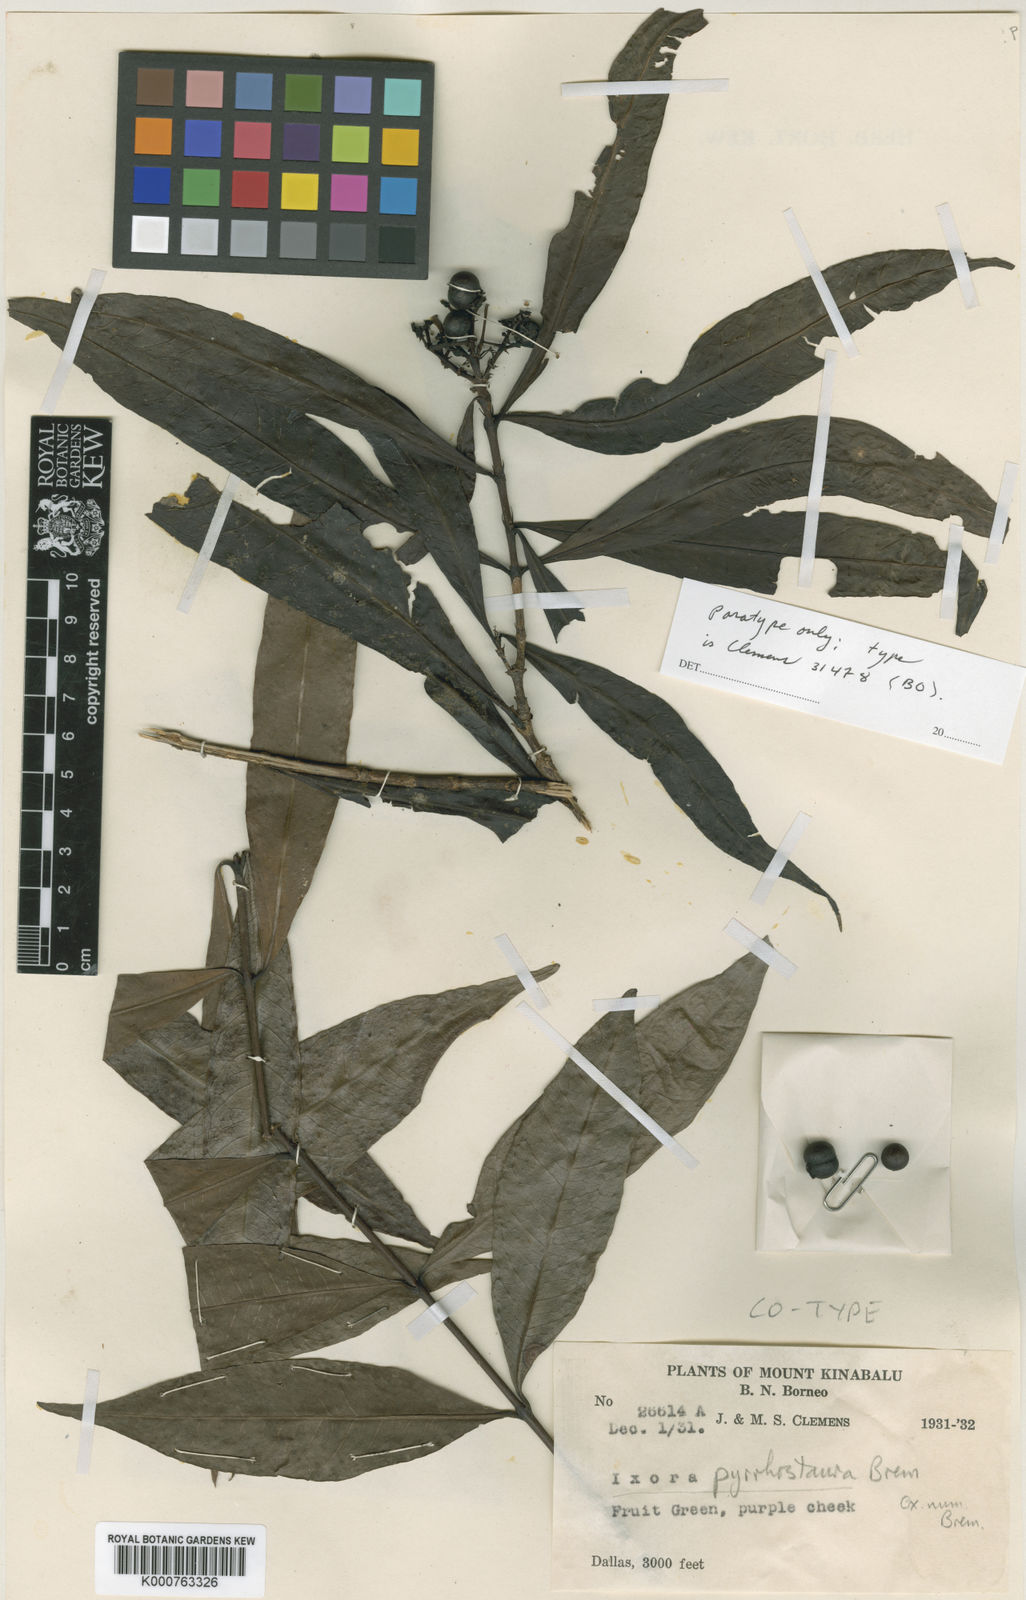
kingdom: Plantae
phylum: Tracheophyta
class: Magnoliopsida
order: Gentianales
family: Rubiaceae
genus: Ixora
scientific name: Ixora pyrrhostaura
